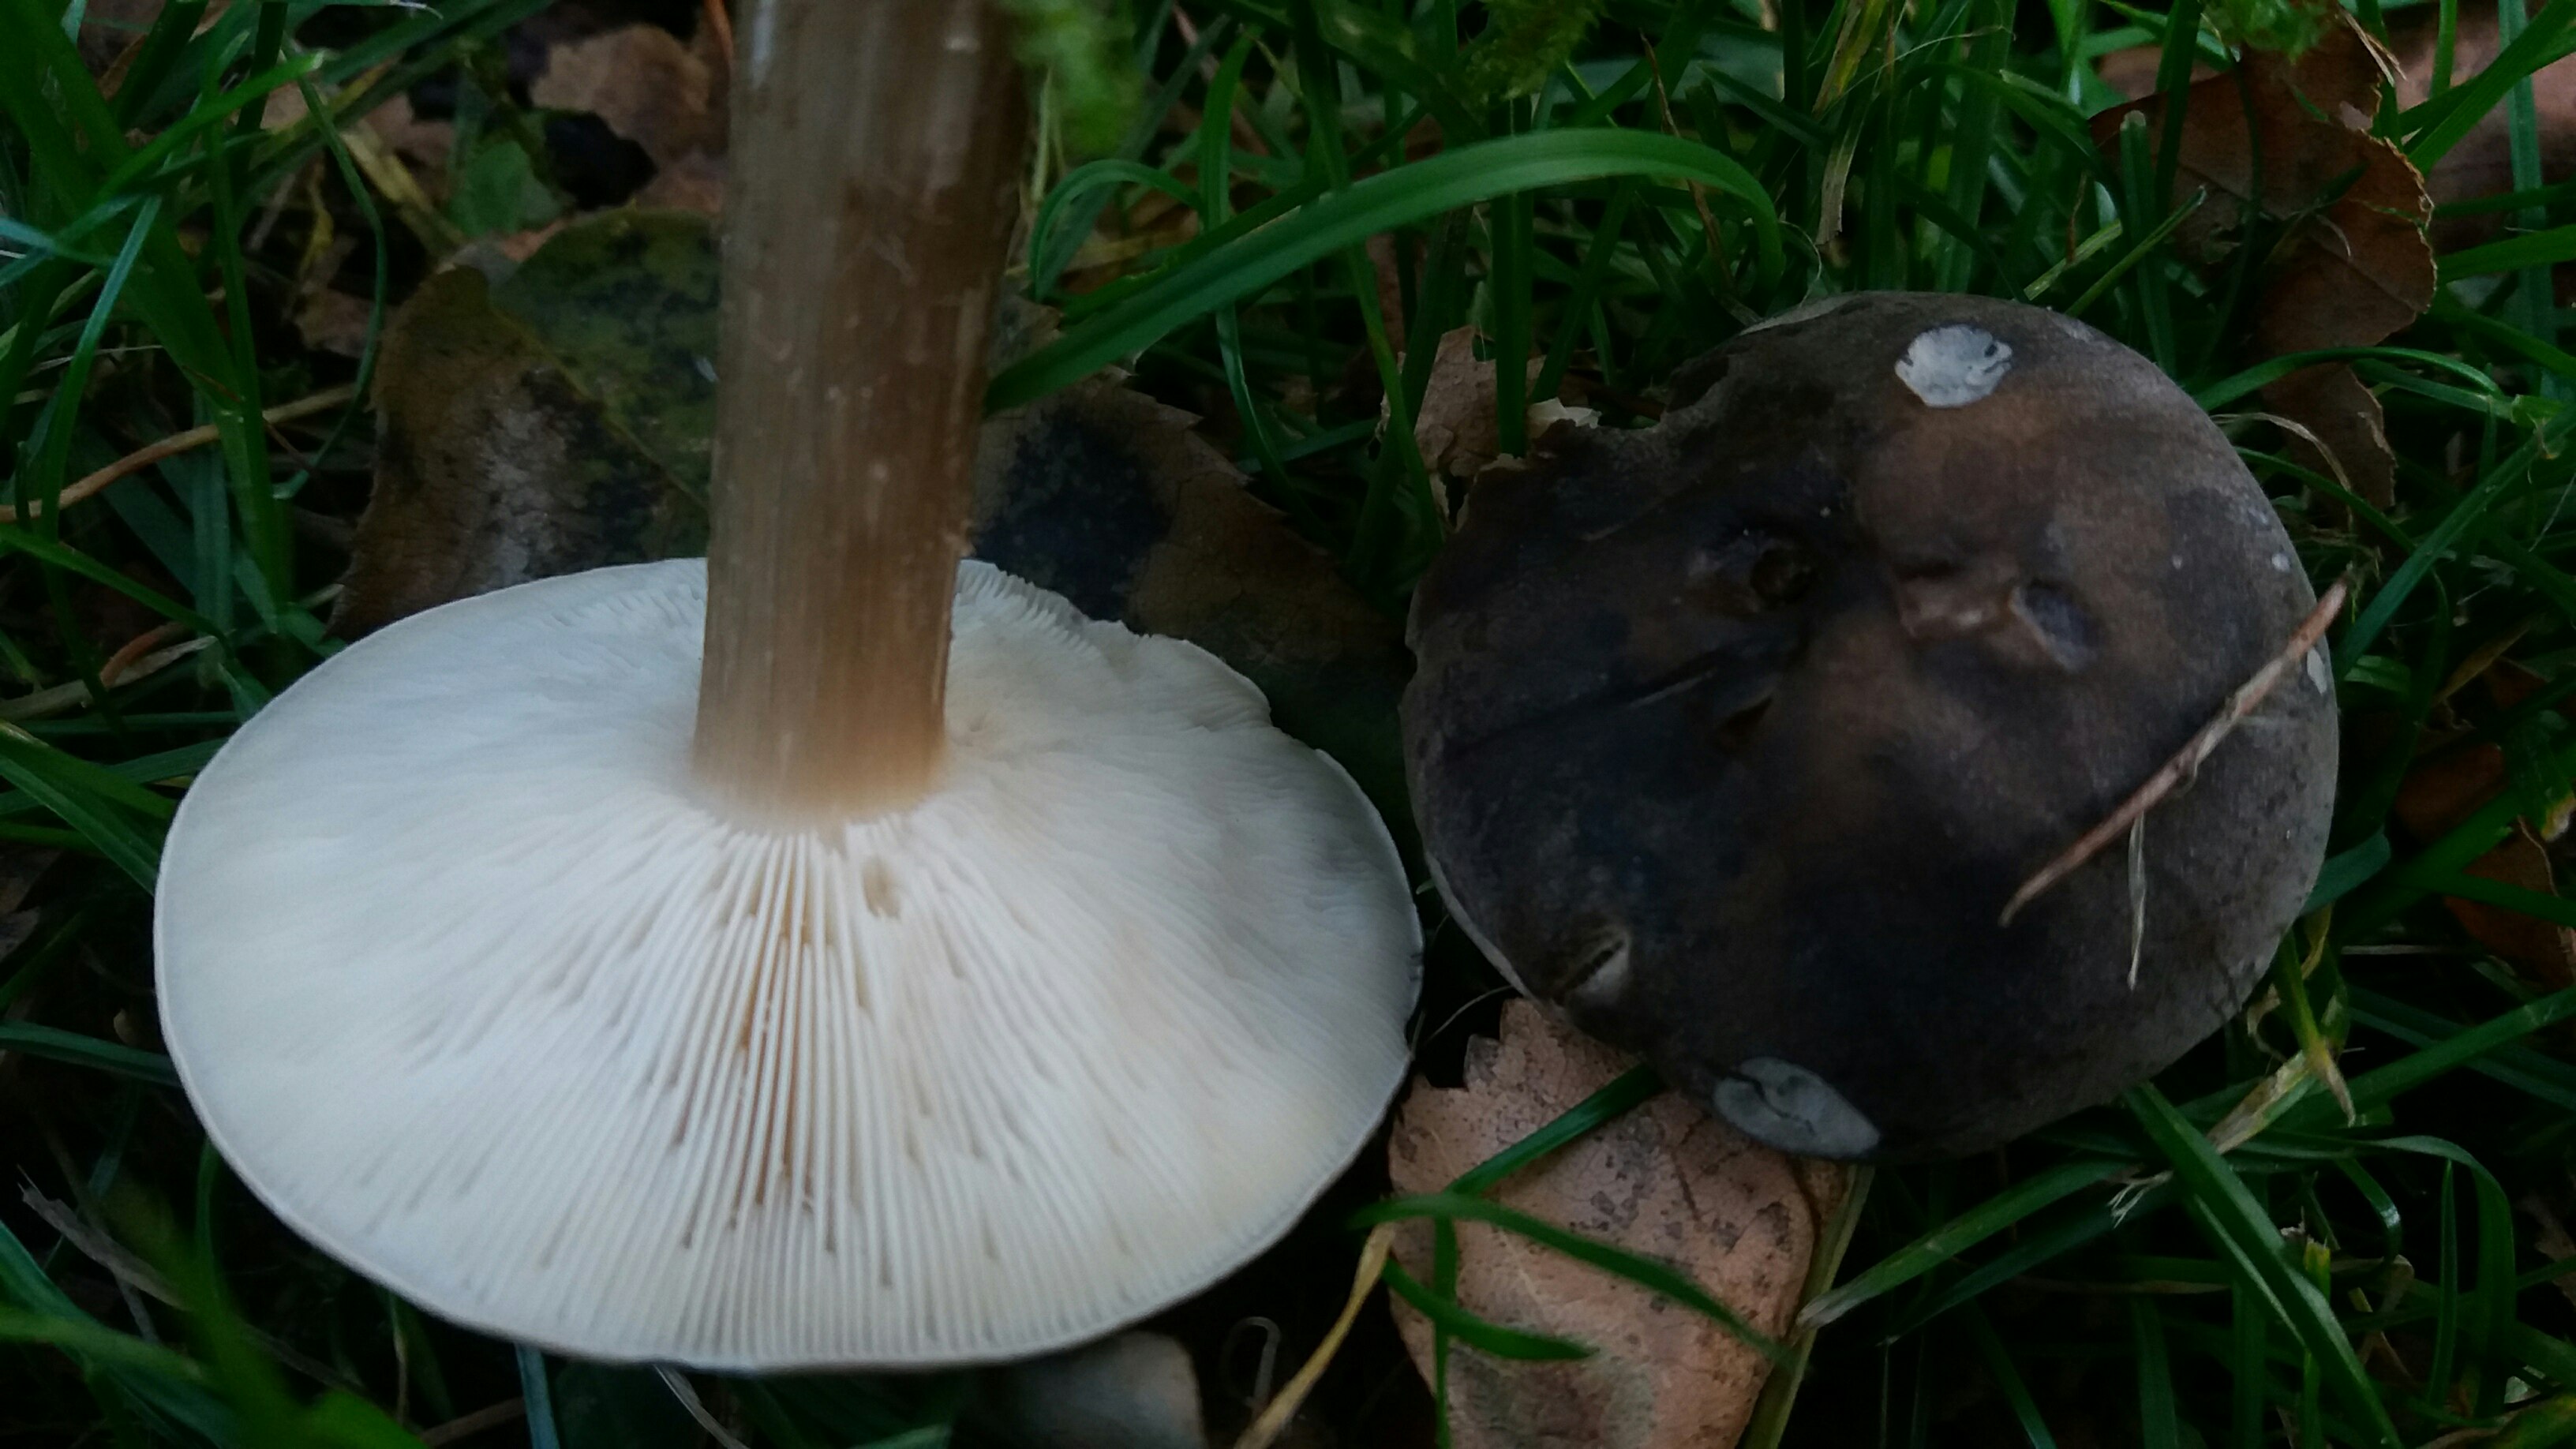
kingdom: Fungi
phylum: Basidiomycota
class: Agaricomycetes
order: Agaricales
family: Tricholomataceae
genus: Melanoleuca
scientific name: Melanoleuca
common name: munkehat
